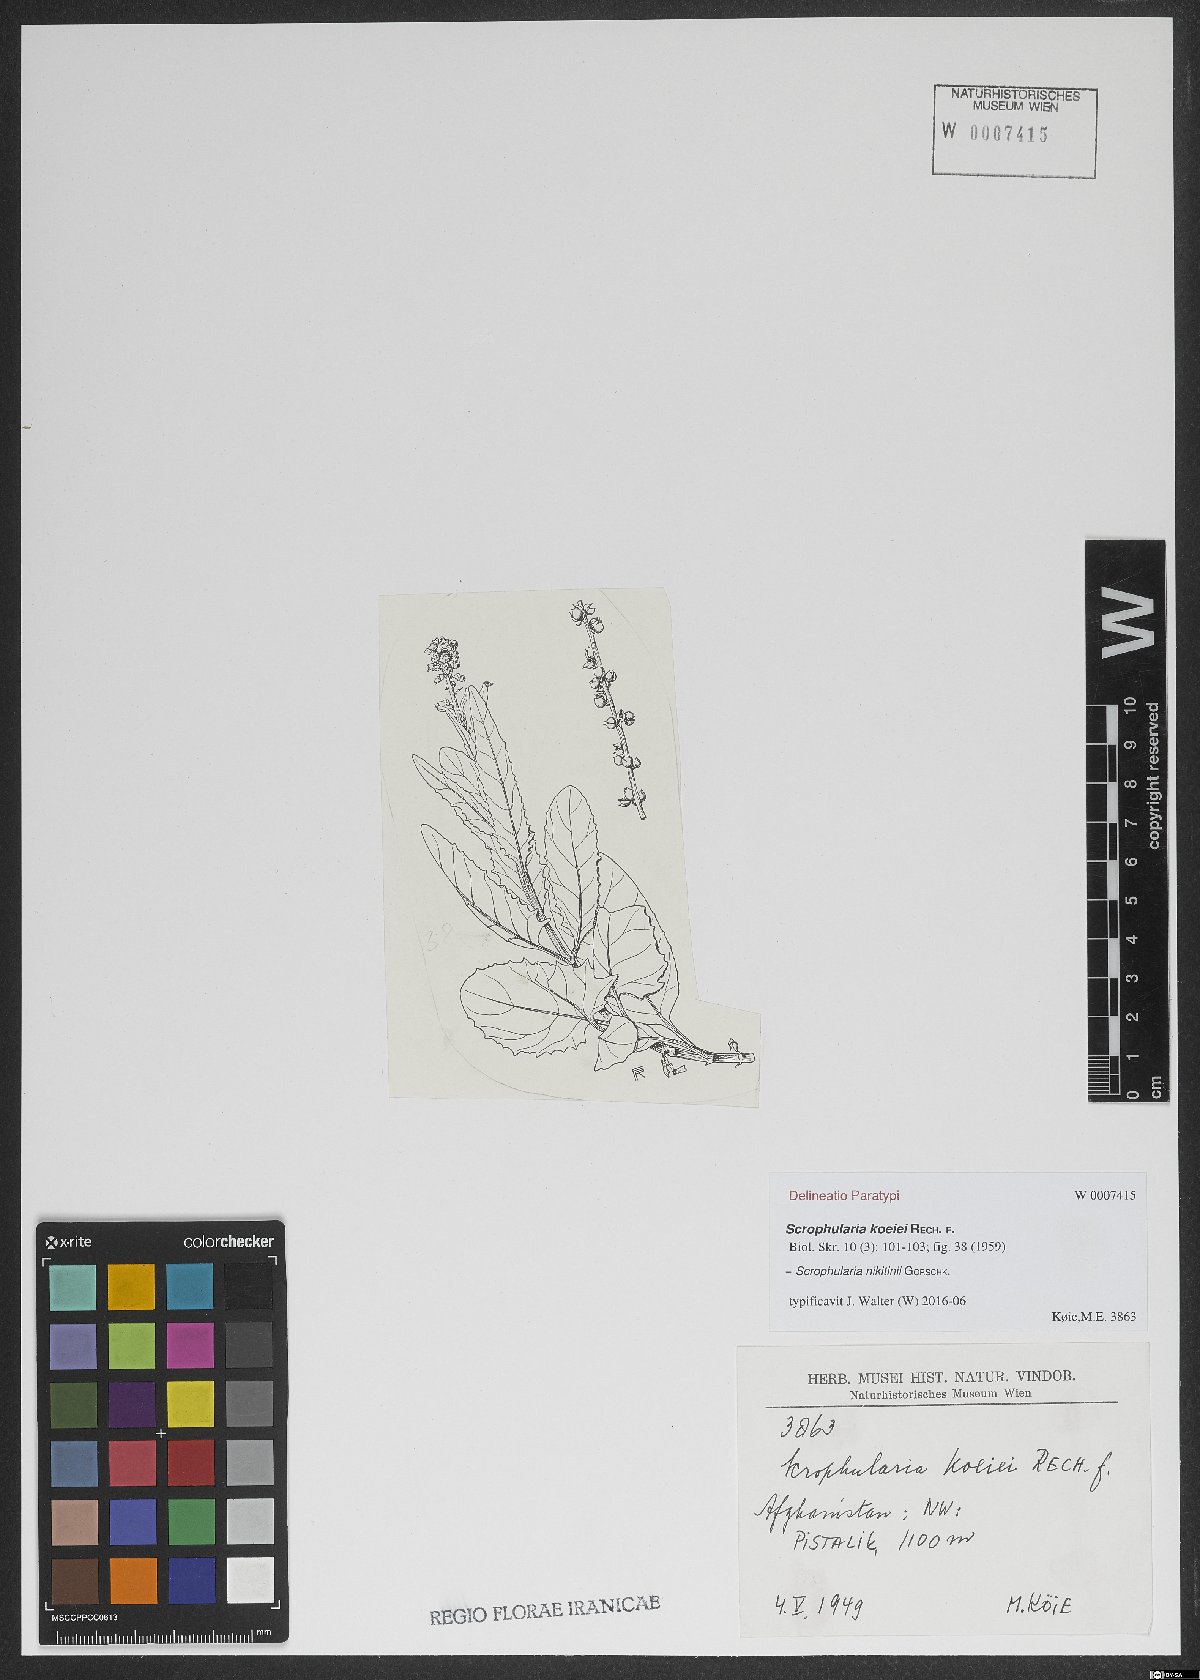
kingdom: Plantae
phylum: Tracheophyta
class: Magnoliopsida
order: Lamiales
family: Scrophulariaceae
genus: Scrophularia
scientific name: Scrophularia nikitinii
